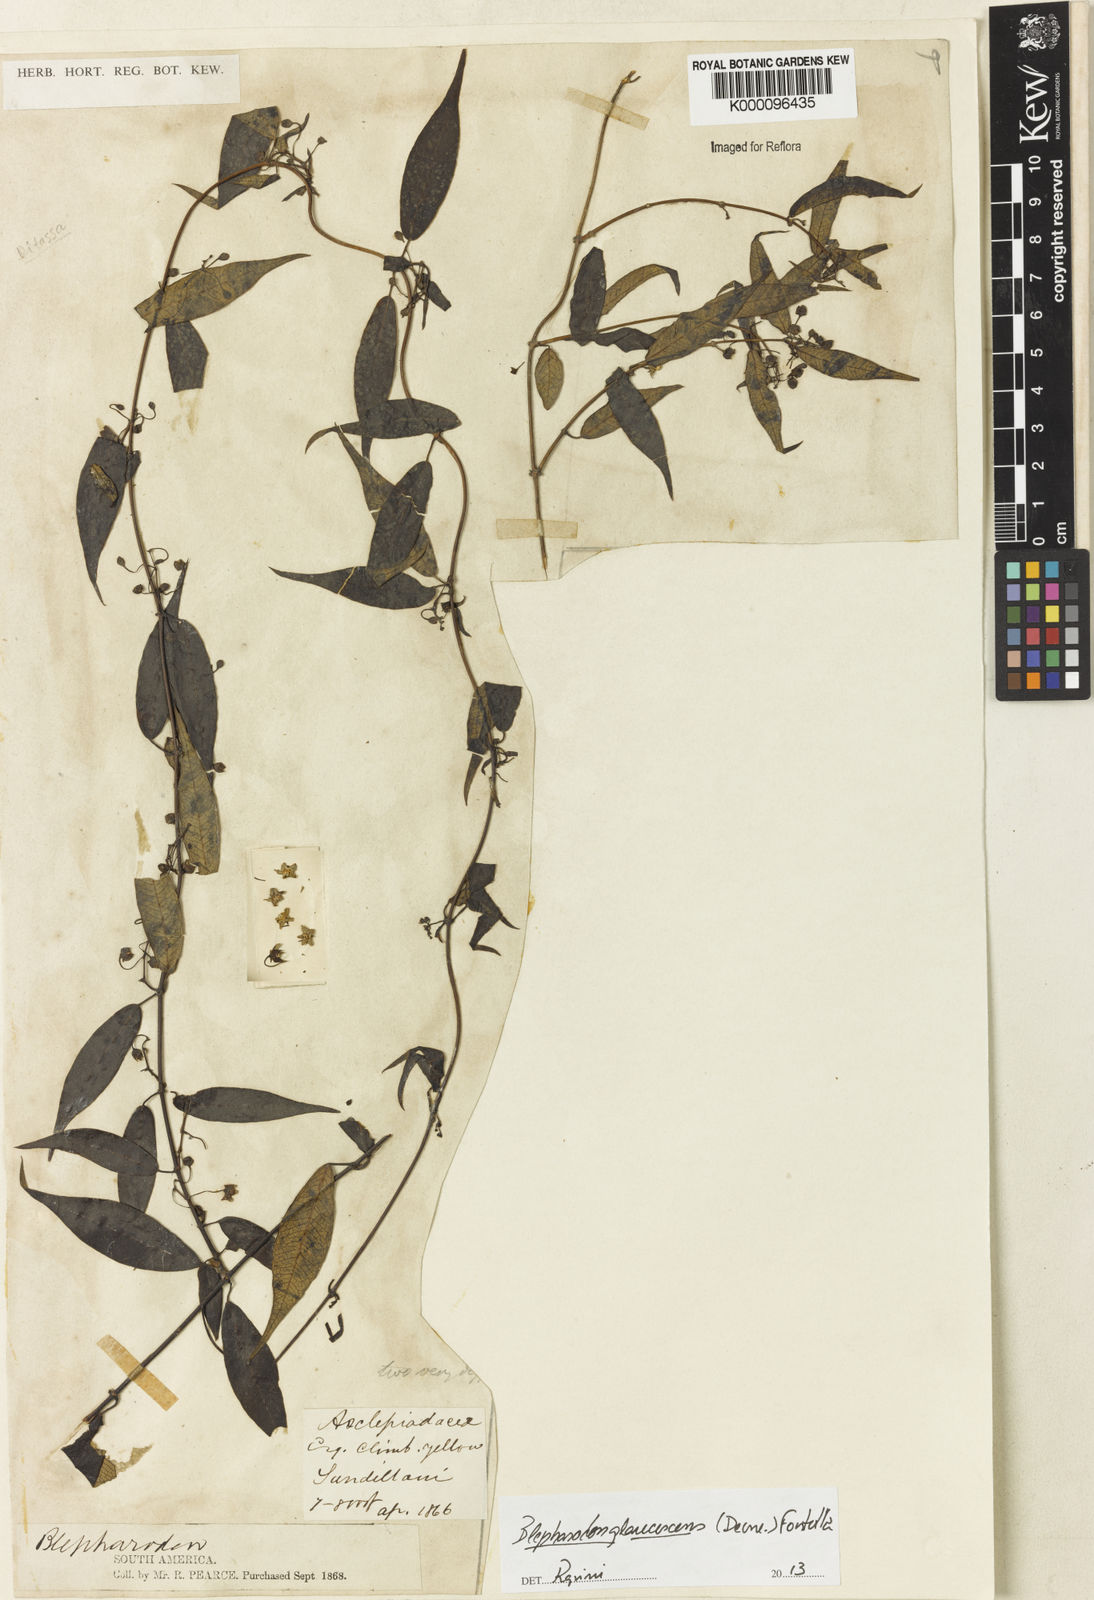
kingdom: Plantae
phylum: Tracheophyta
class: Magnoliopsida
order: Gentianales
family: Apocynaceae
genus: Blepharodon
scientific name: Blepharodon glaucescens
